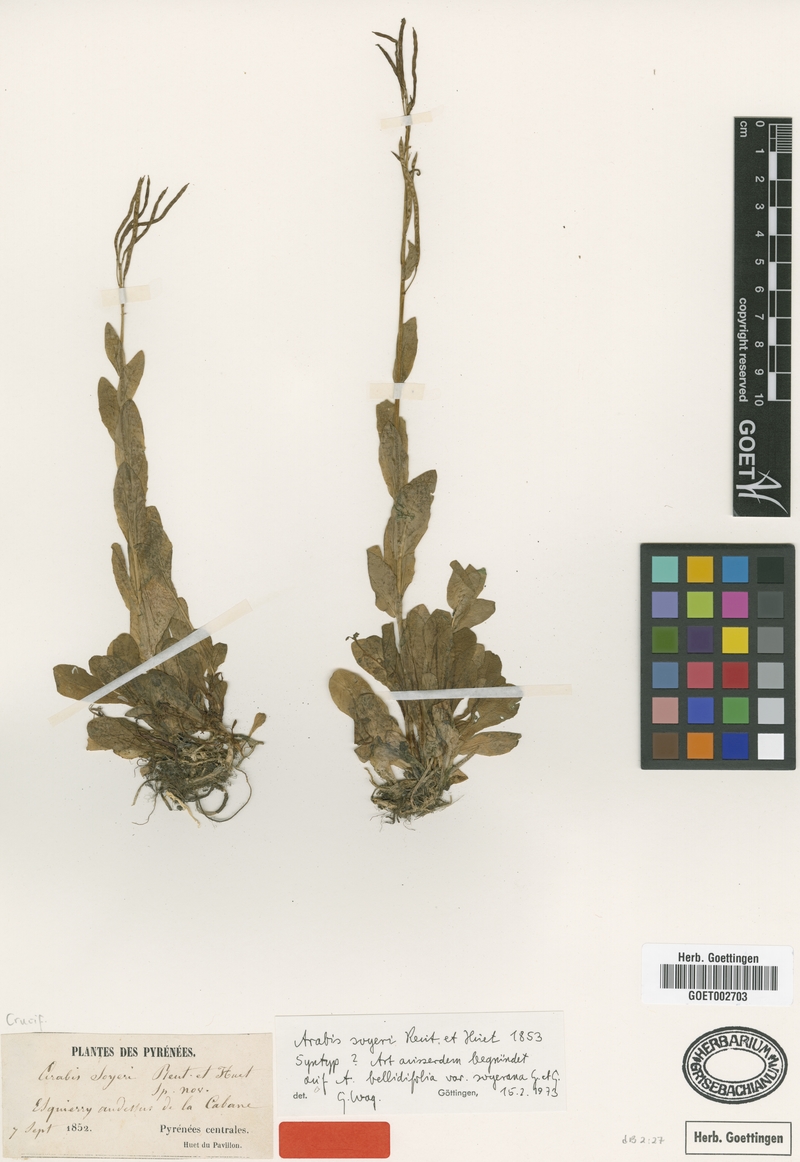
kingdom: Plantae
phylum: Tracheophyta
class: Magnoliopsida
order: Brassicales
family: Brassicaceae
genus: Arabis
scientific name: Arabis soyeri
